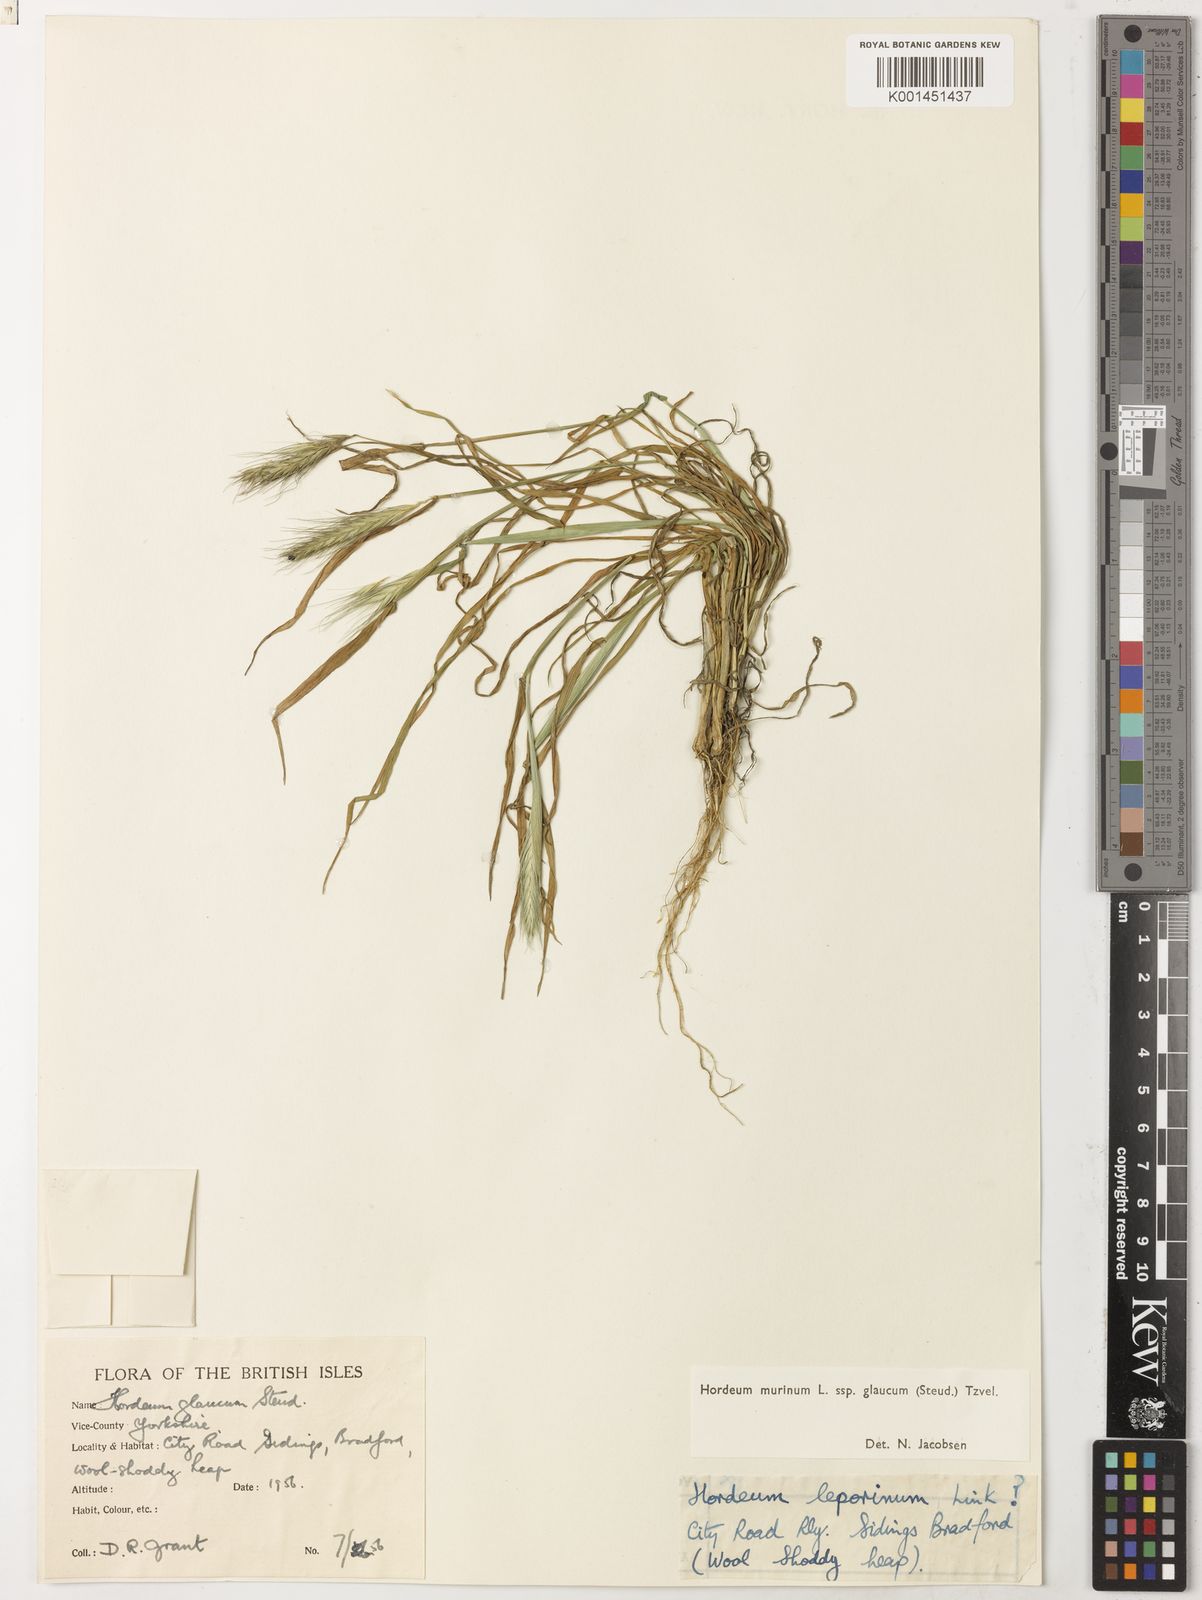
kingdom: Plantae
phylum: Tracheophyta
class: Liliopsida
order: Poales
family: Poaceae
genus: Hordeum
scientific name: Hordeum murinum
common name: Wall barley
